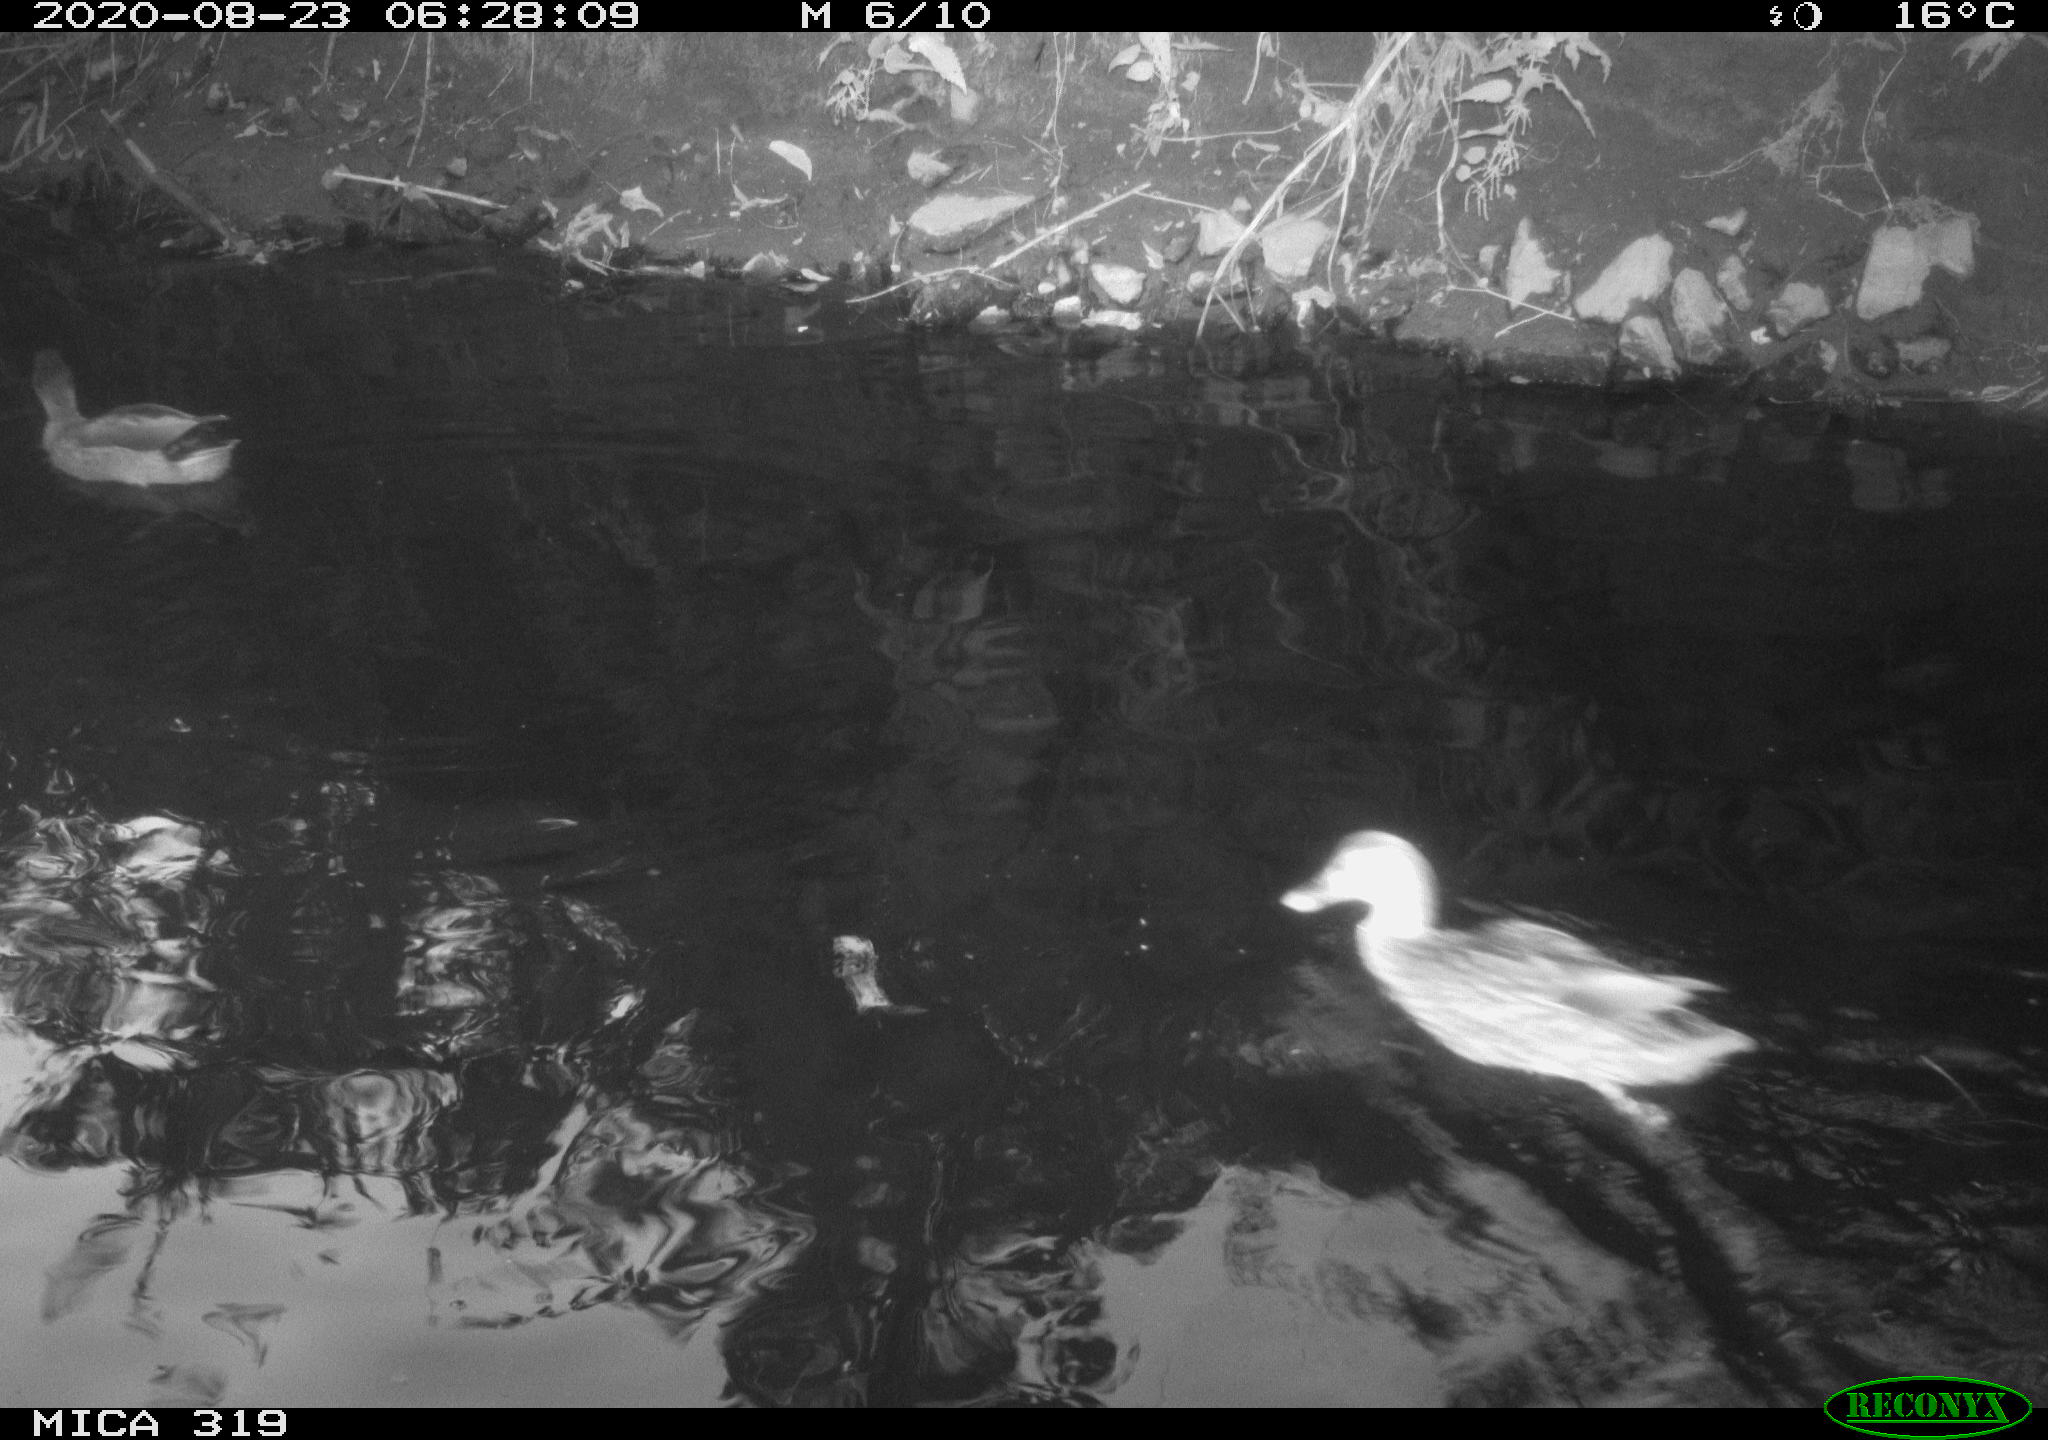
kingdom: Animalia
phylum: Chordata
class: Aves
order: Anseriformes
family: Anatidae
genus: Anas
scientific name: Anas platyrhynchos
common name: Mallard
